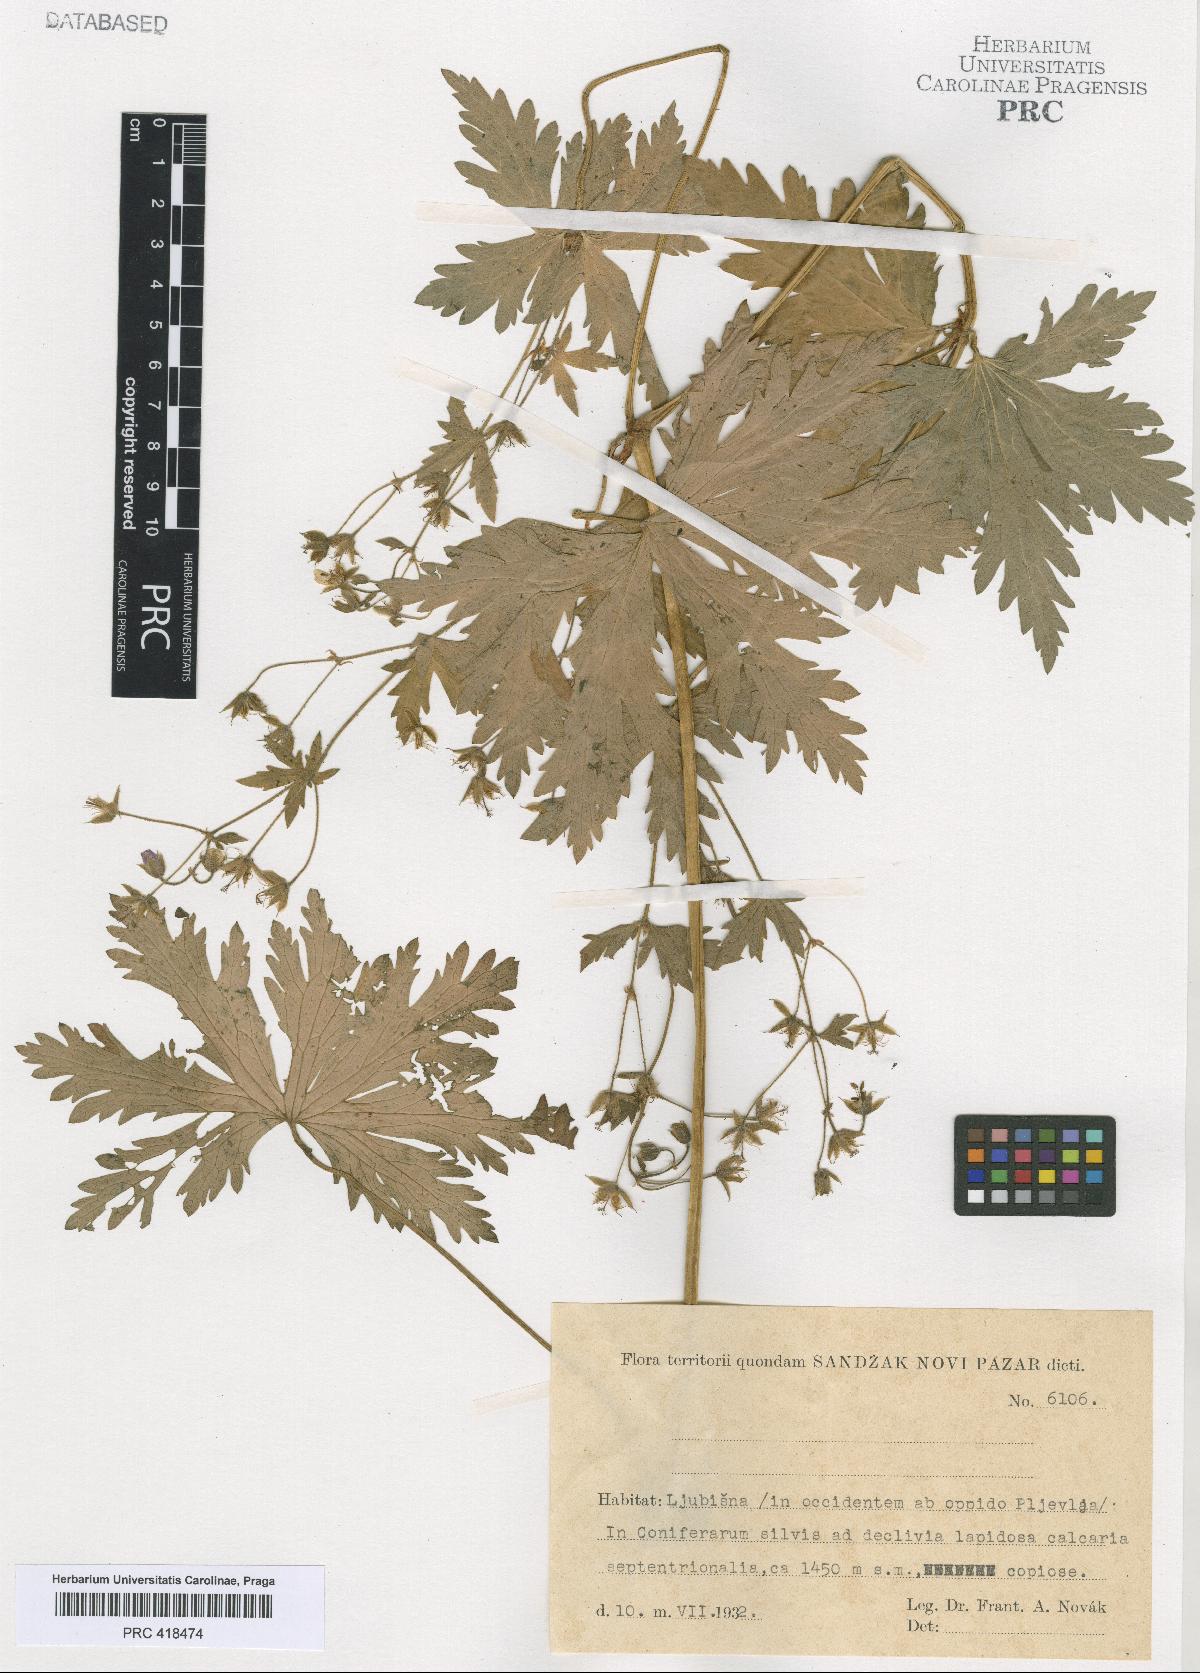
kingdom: Plantae
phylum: Tracheophyta
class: Magnoliopsida
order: Geraniales
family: Geraniaceae
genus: Geranium
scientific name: Geranium sylvaticum
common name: Wood crane's-bill
